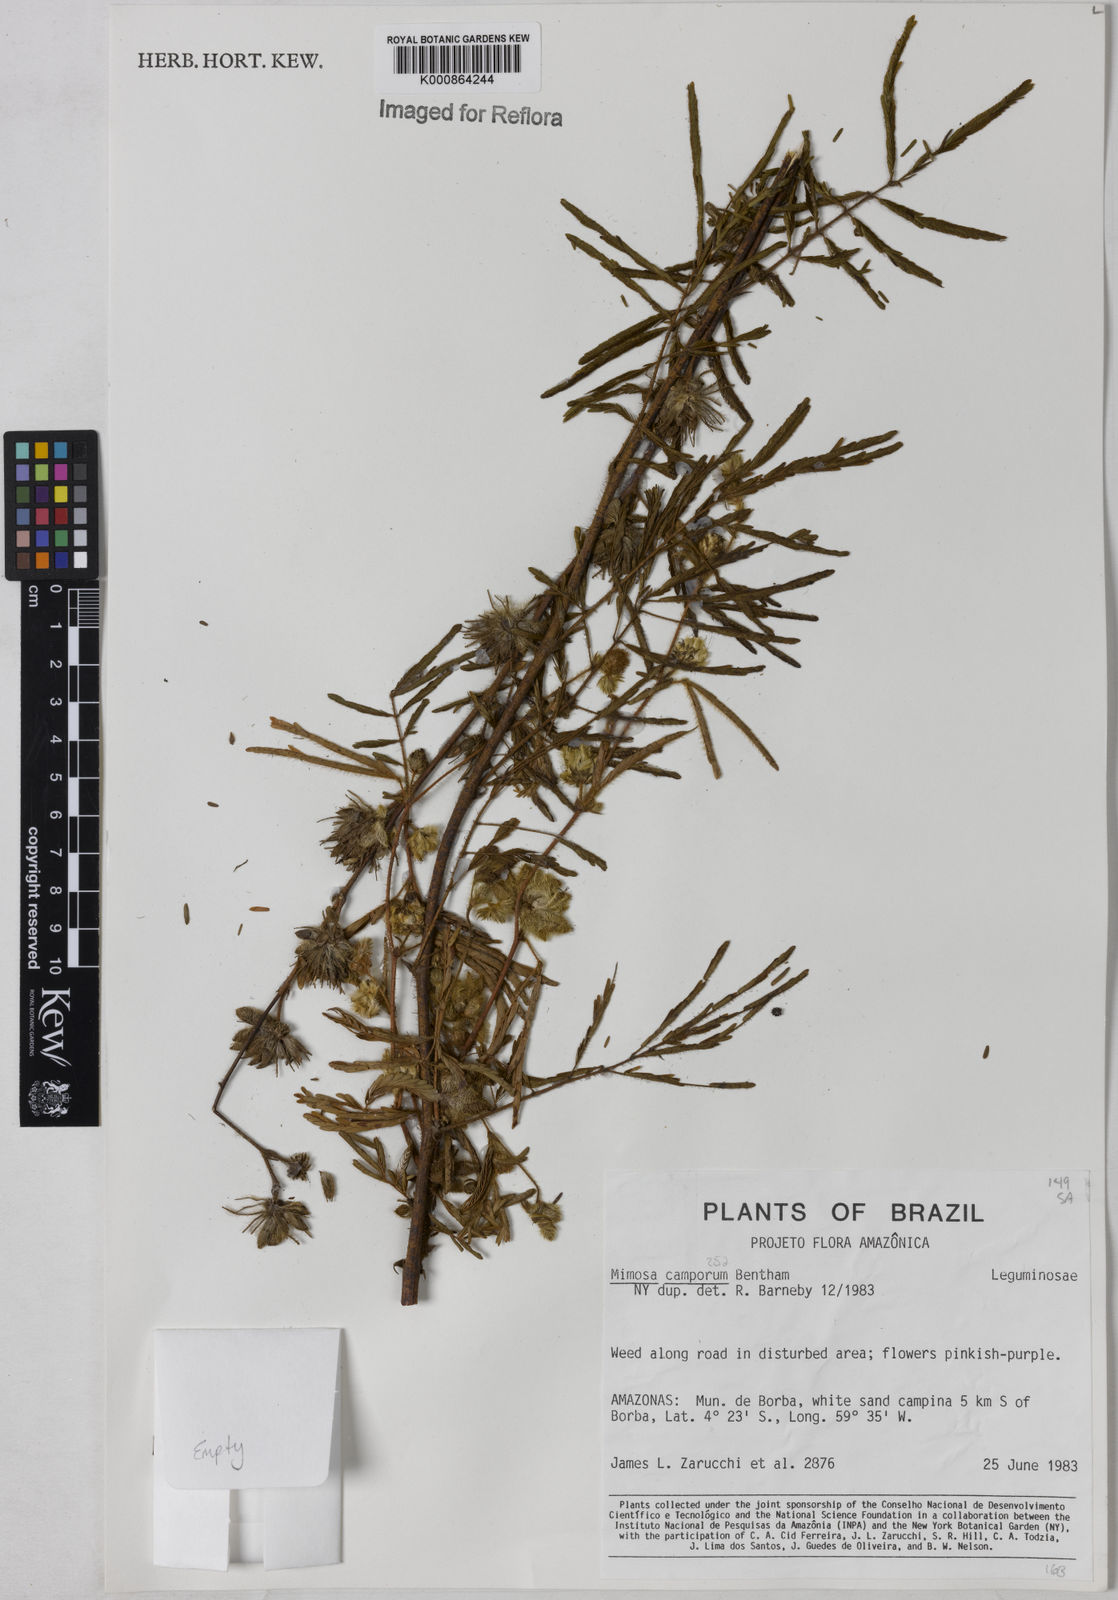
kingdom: Plantae
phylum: Tracheophyta
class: Magnoliopsida
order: Fabales
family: Fabaceae
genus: Mimosa
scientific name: Mimosa camporum
